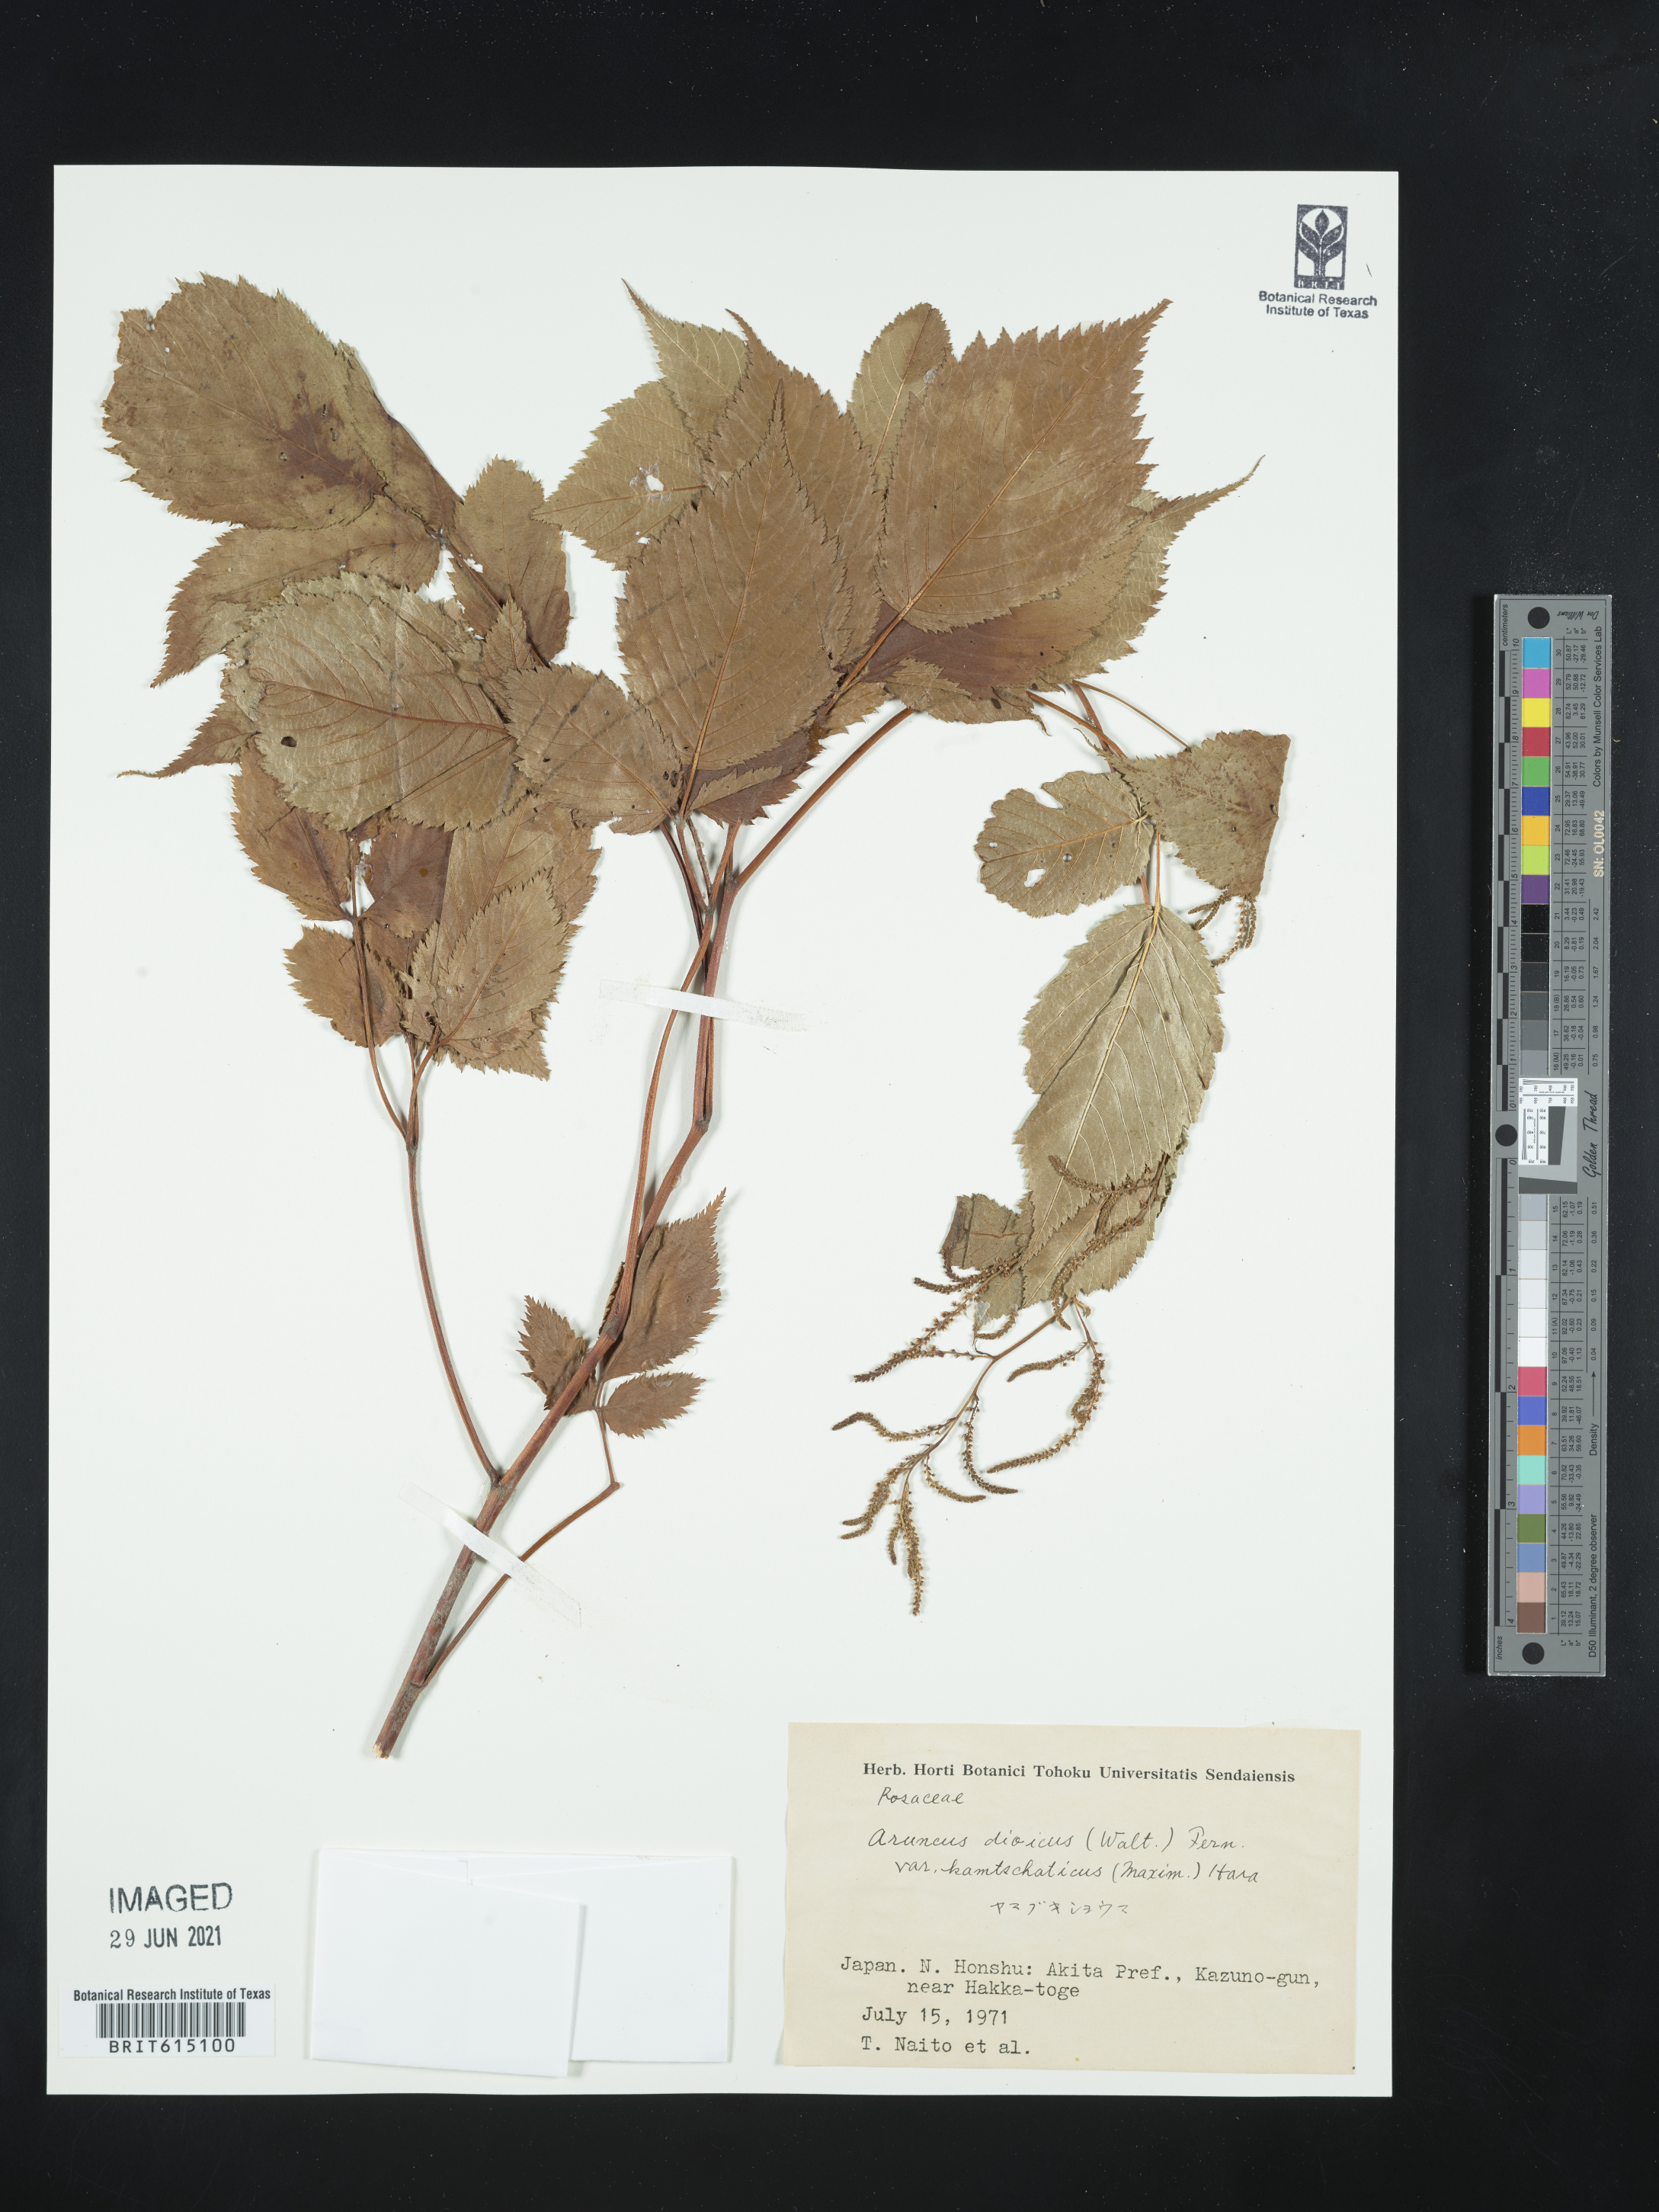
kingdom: Plantae
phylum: Tracheophyta
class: Magnoliopsida
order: Rosales
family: Rosaceae
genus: Aruncus
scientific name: Aruncus dioicus
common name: Buck's-beard
